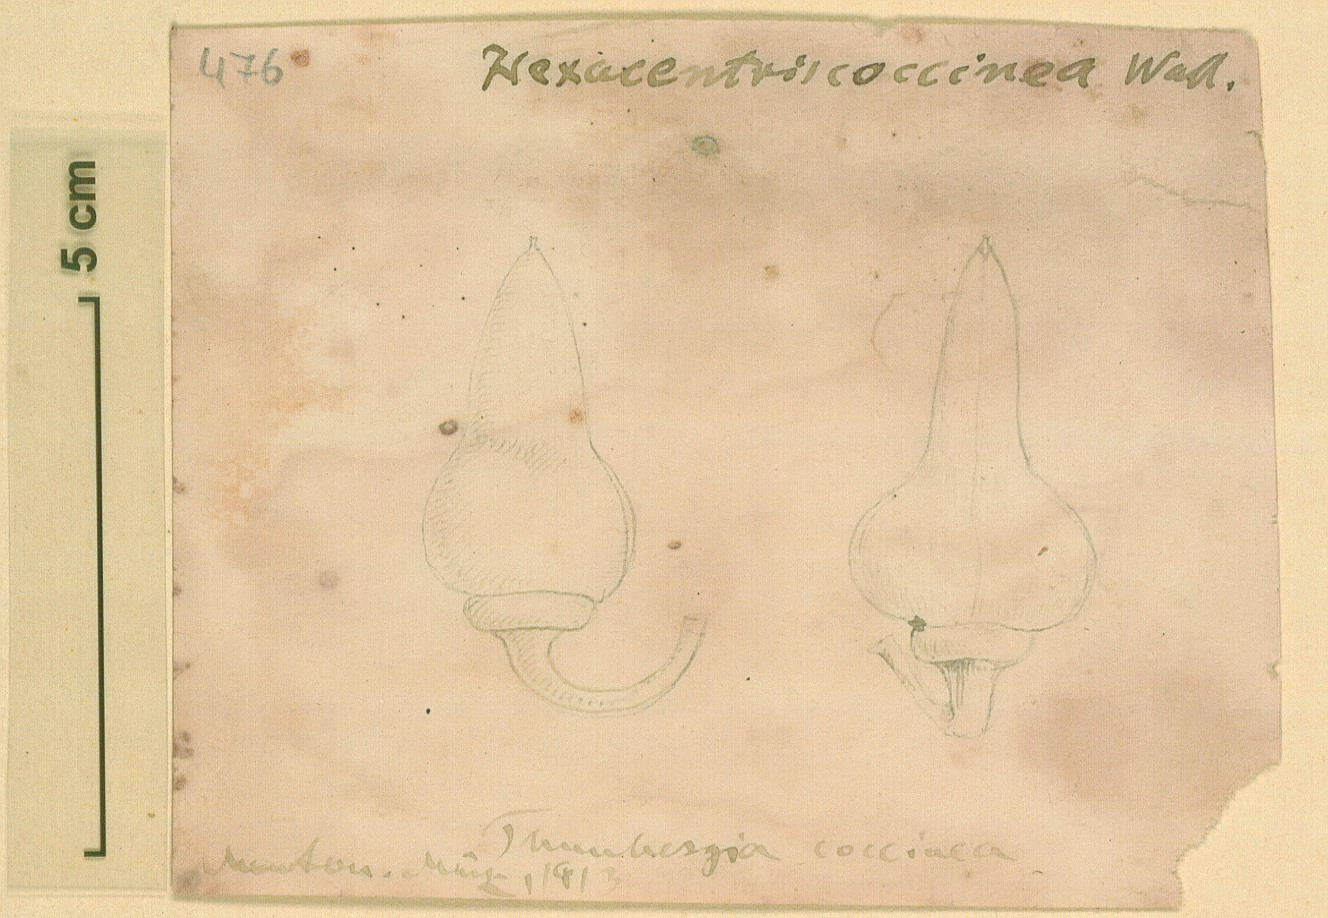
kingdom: Plantae
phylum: Tracheophyta
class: Magnoliopsida
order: Lamiales
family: Acanthaceae
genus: Thunbergia
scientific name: Thunbergia coccinea
